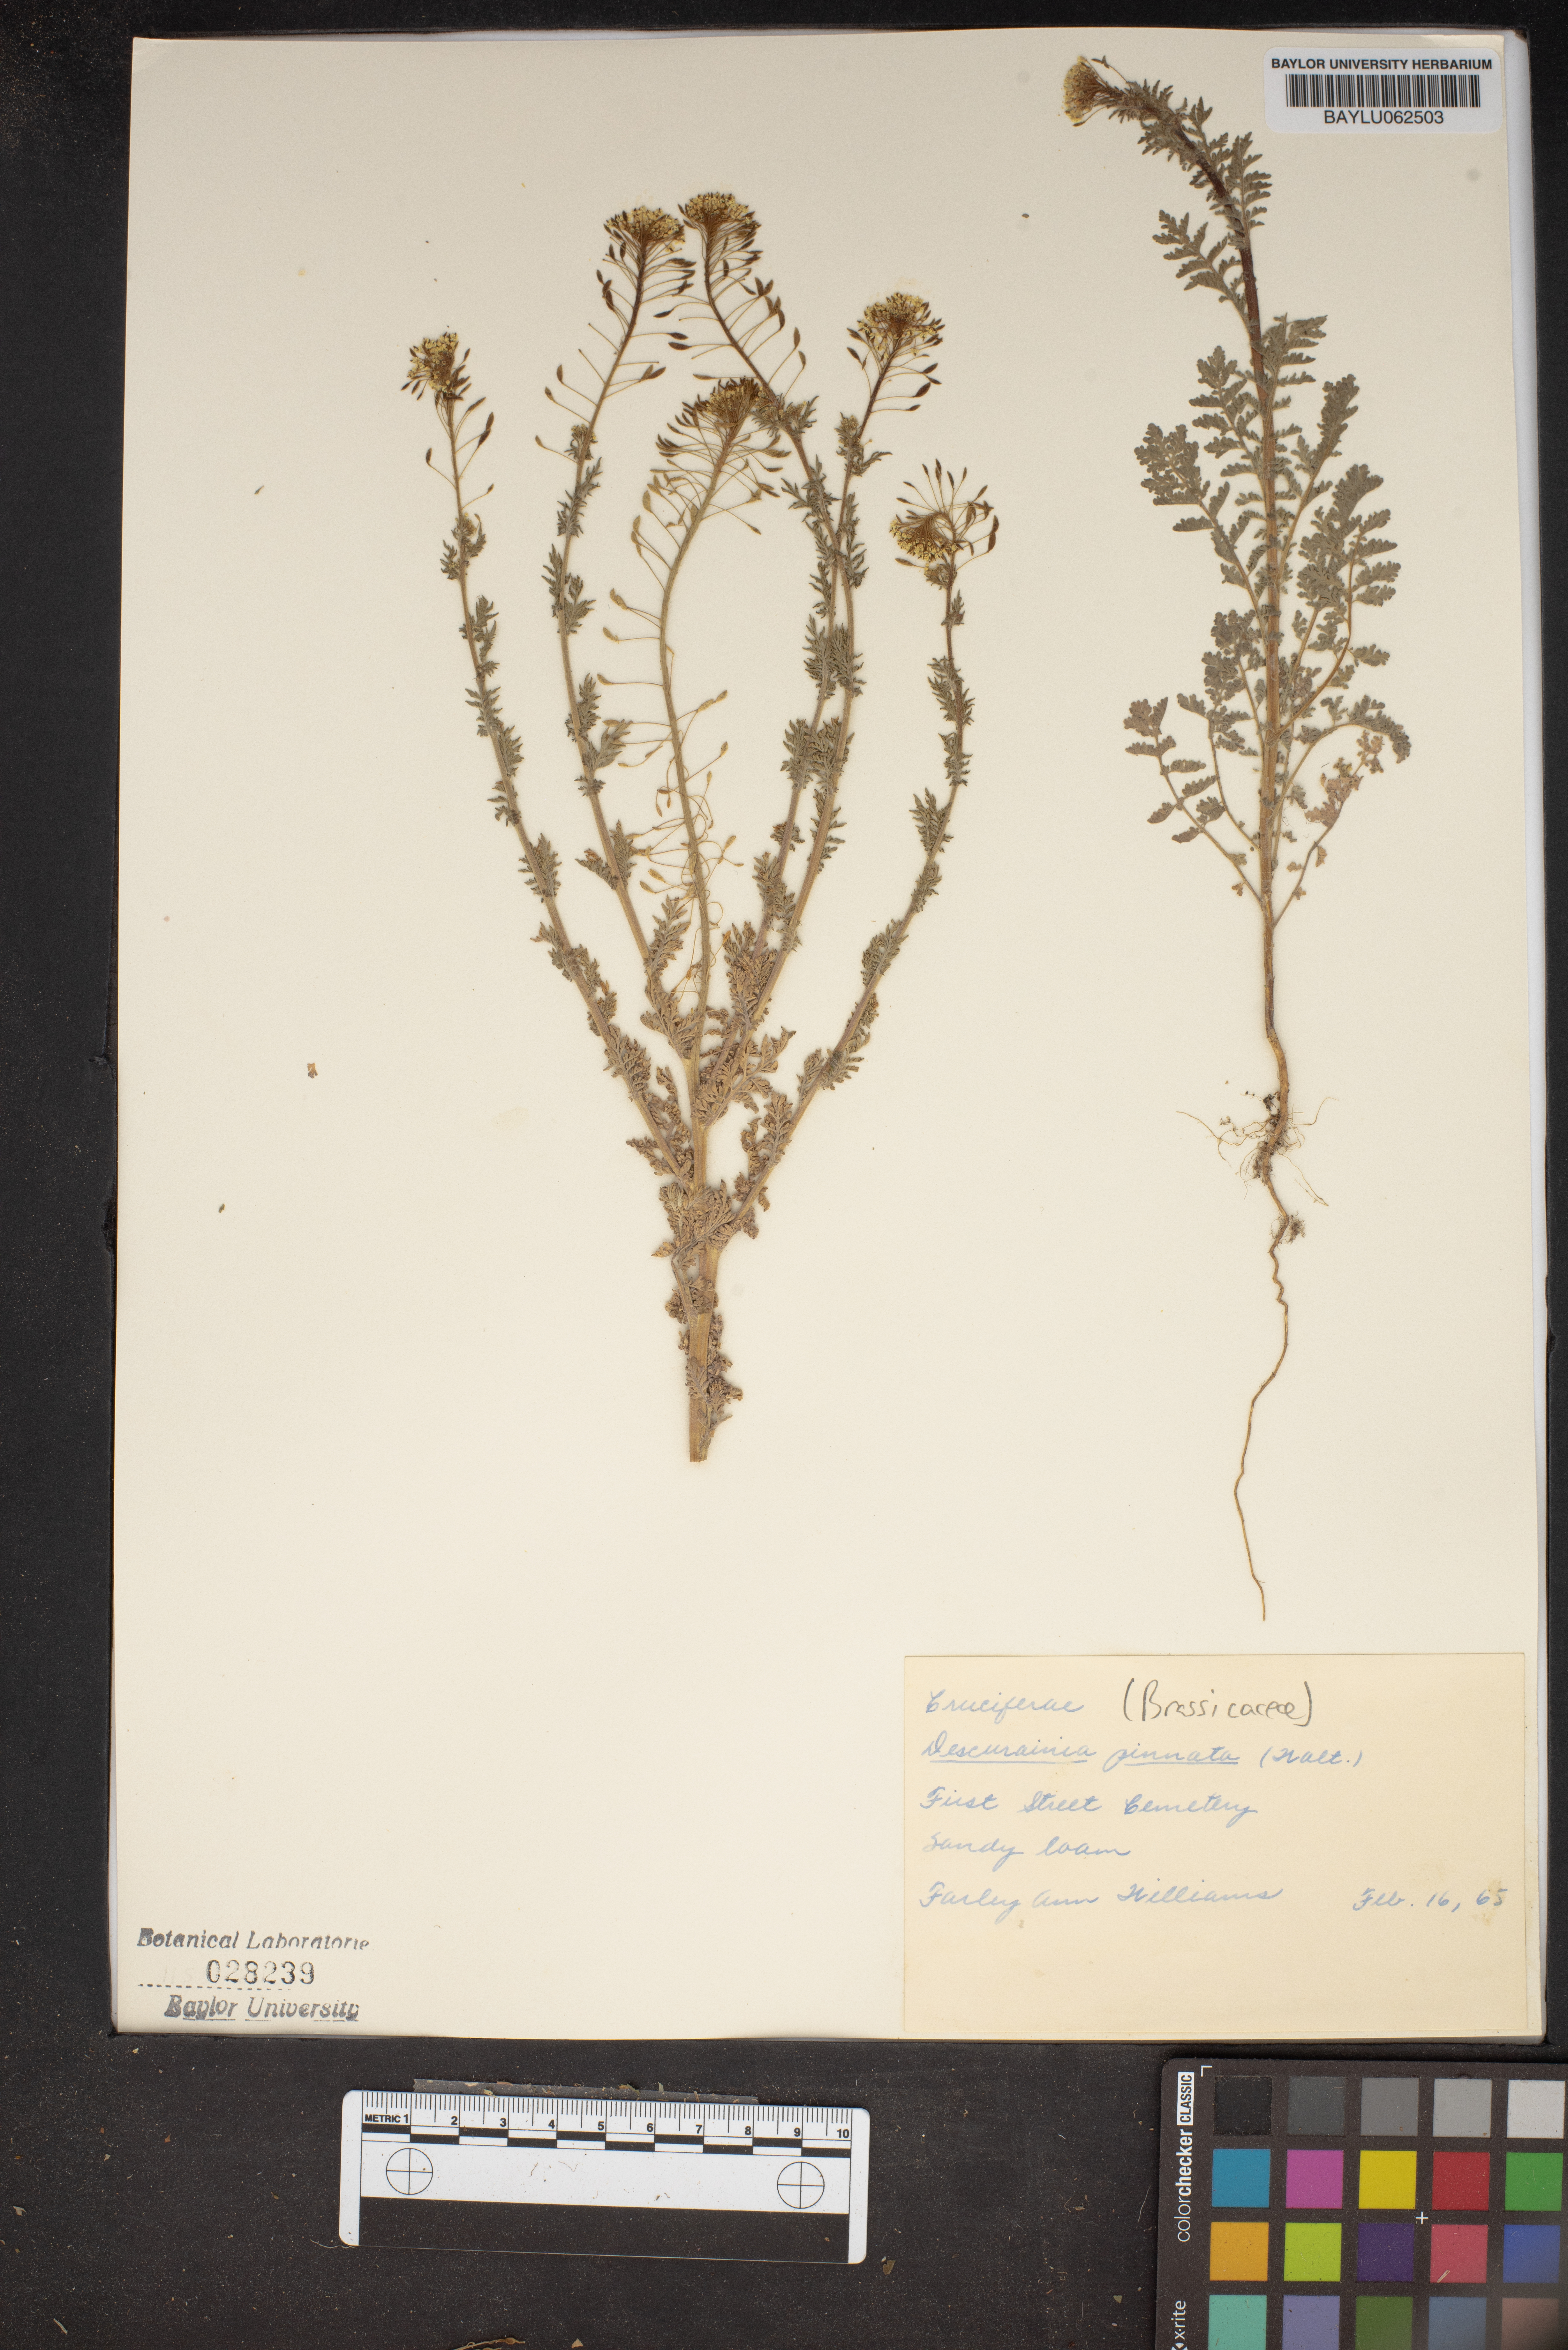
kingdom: Plantae
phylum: Tracheophyta
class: Magnoliopsida
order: Brassicales
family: Brassicaceae
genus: Descurainia
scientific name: Descurainia pinnata
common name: Western tansy mustard
